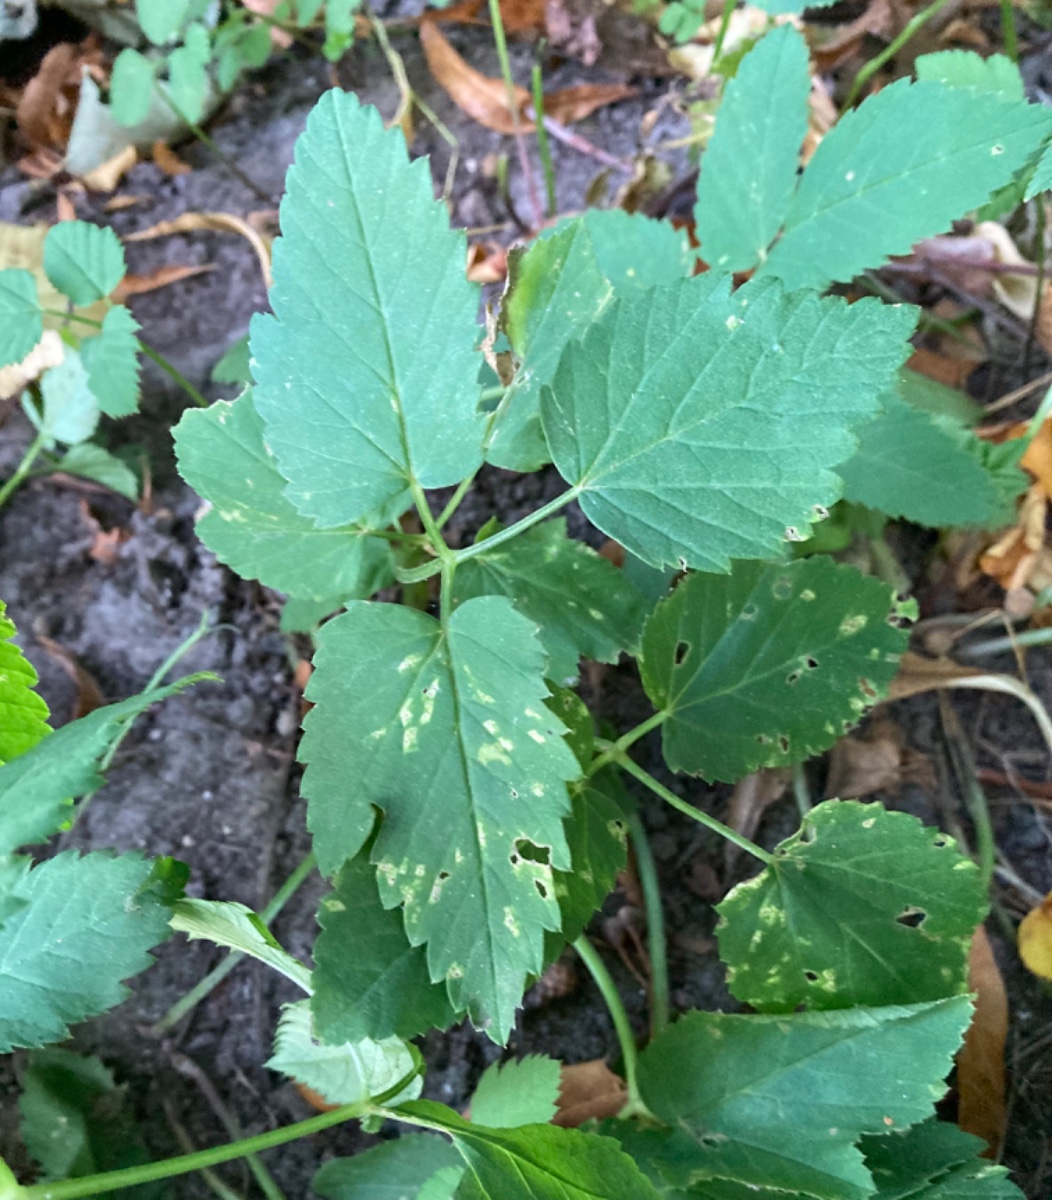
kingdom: Fungi
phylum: Ascomycota
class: Dothideomycetes
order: Mycosphaerellales
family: Mycosphaerellaceae
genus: Mycosphaerella
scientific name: Mycosphaerella podagrariae
